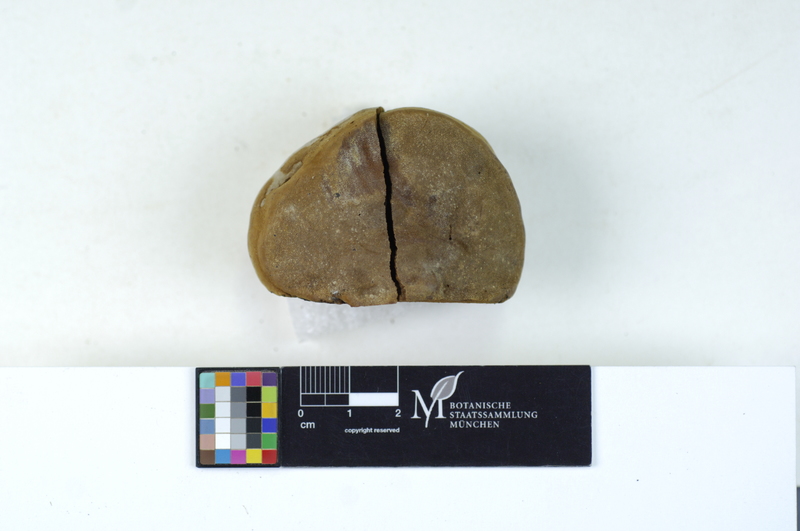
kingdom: Fungi
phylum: Basidiomycota
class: Agaricomycetes
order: Hymenochaetales
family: Hymenochaetaceae
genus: Phellinus
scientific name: Phellinus igniarius
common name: Willow bracket
